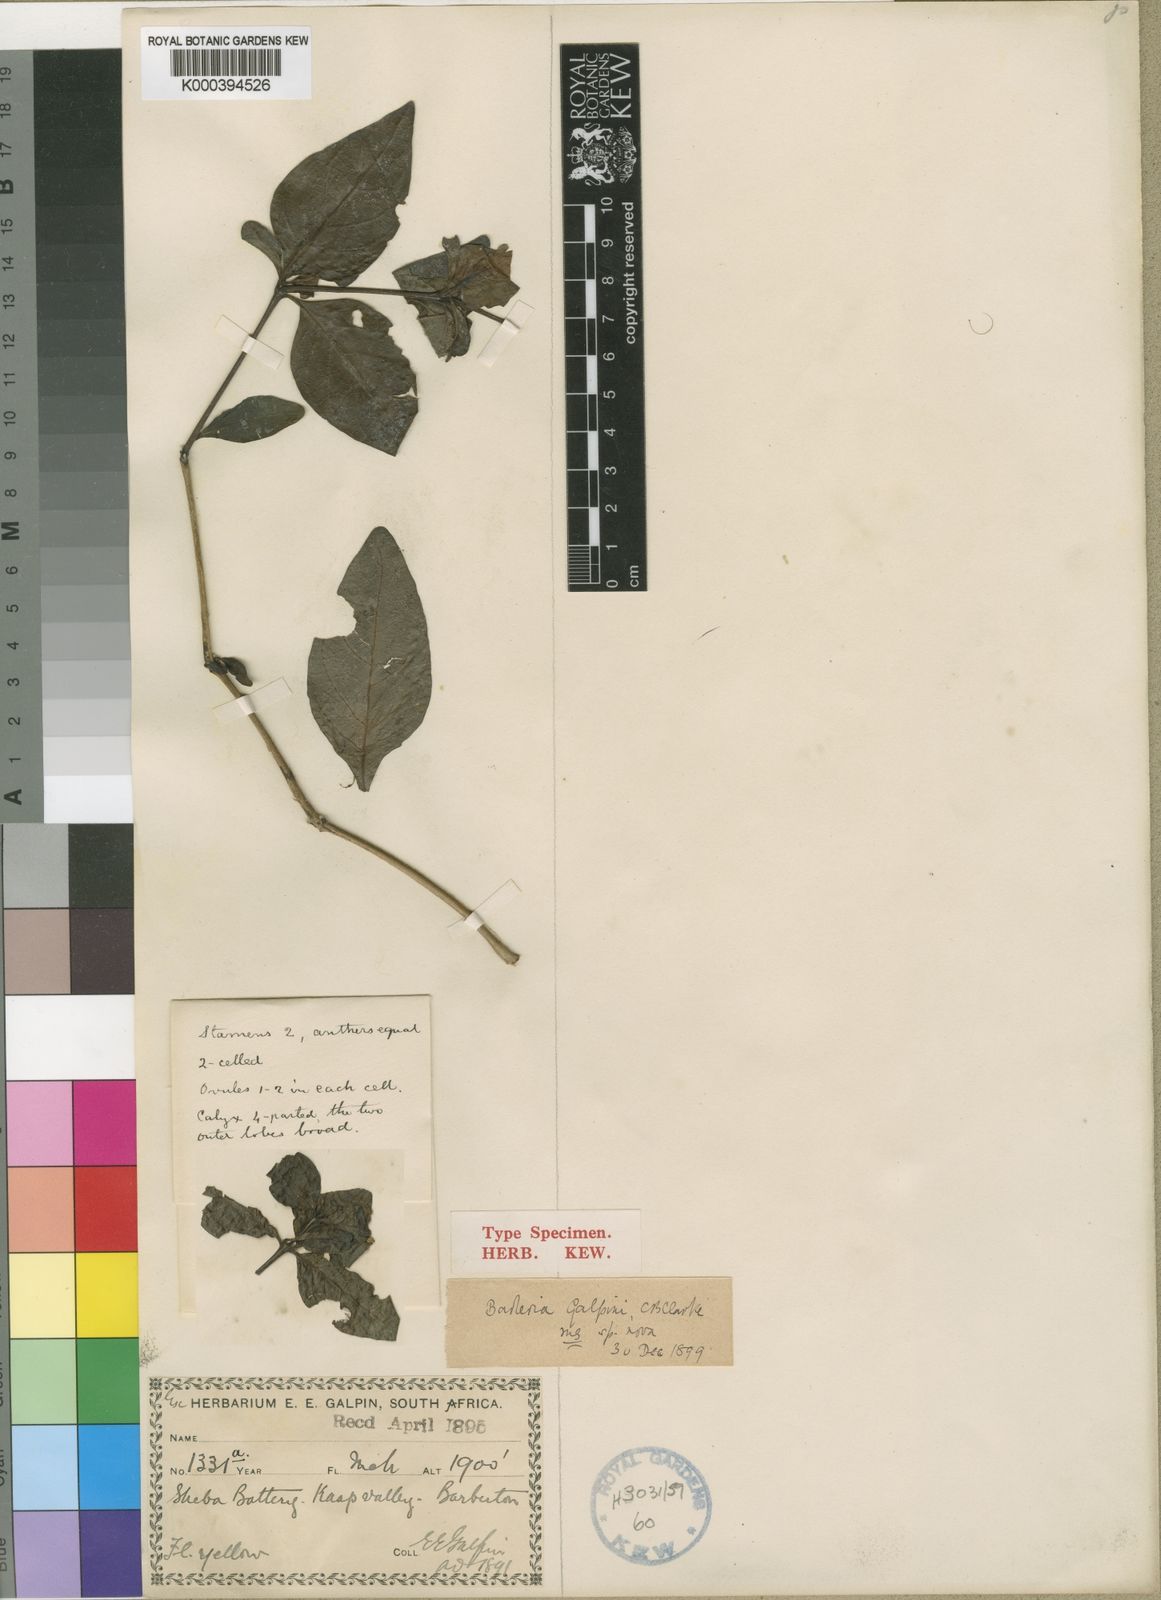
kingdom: Plantae
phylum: Tracheophyta
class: Magnoliopsida
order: Lamiales
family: Acanthaceae
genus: Barleria
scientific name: Barleria galpinii
